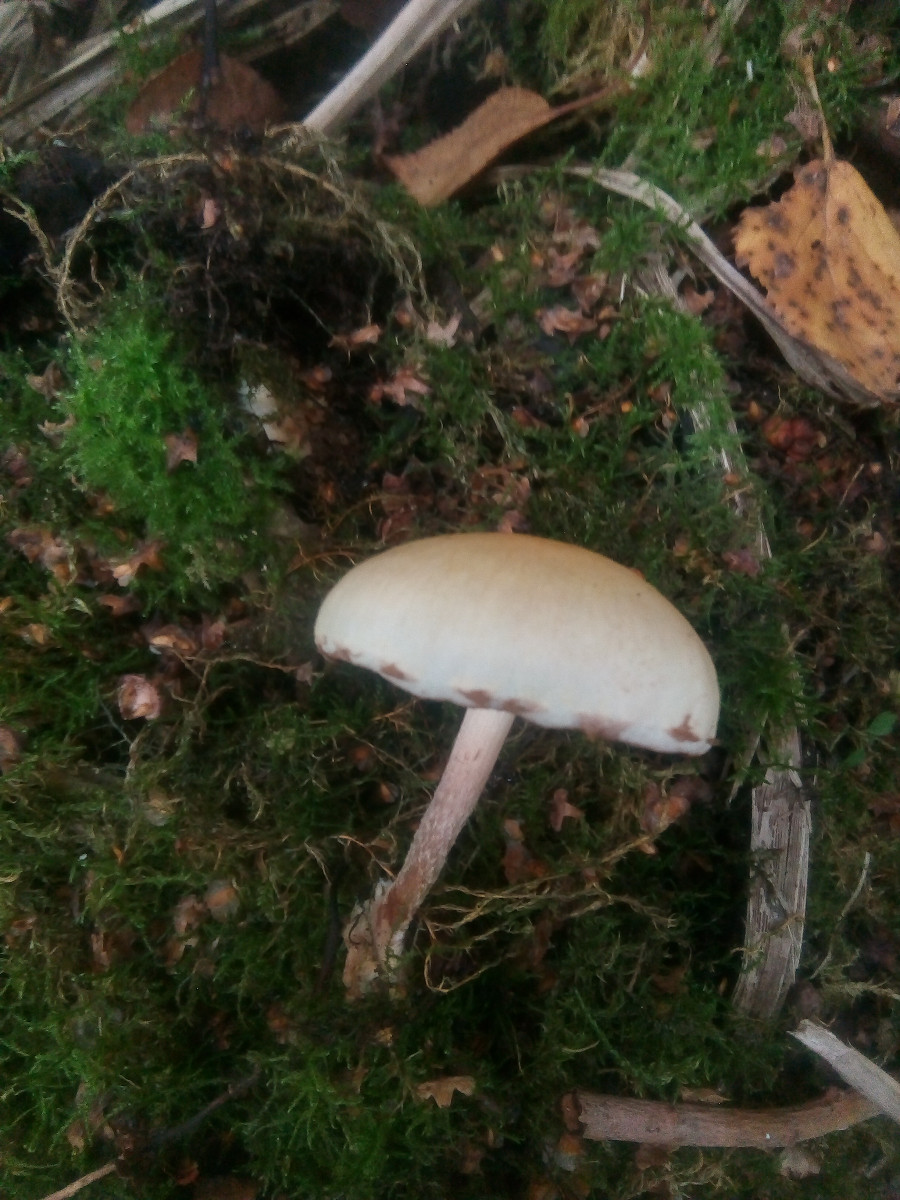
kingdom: Fungi
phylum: Basidiomycota
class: Agaricomycetes
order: Agaricales
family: Hymenogastraceae
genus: Flammula
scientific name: Flammula alnicola
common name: elle-skælhat
